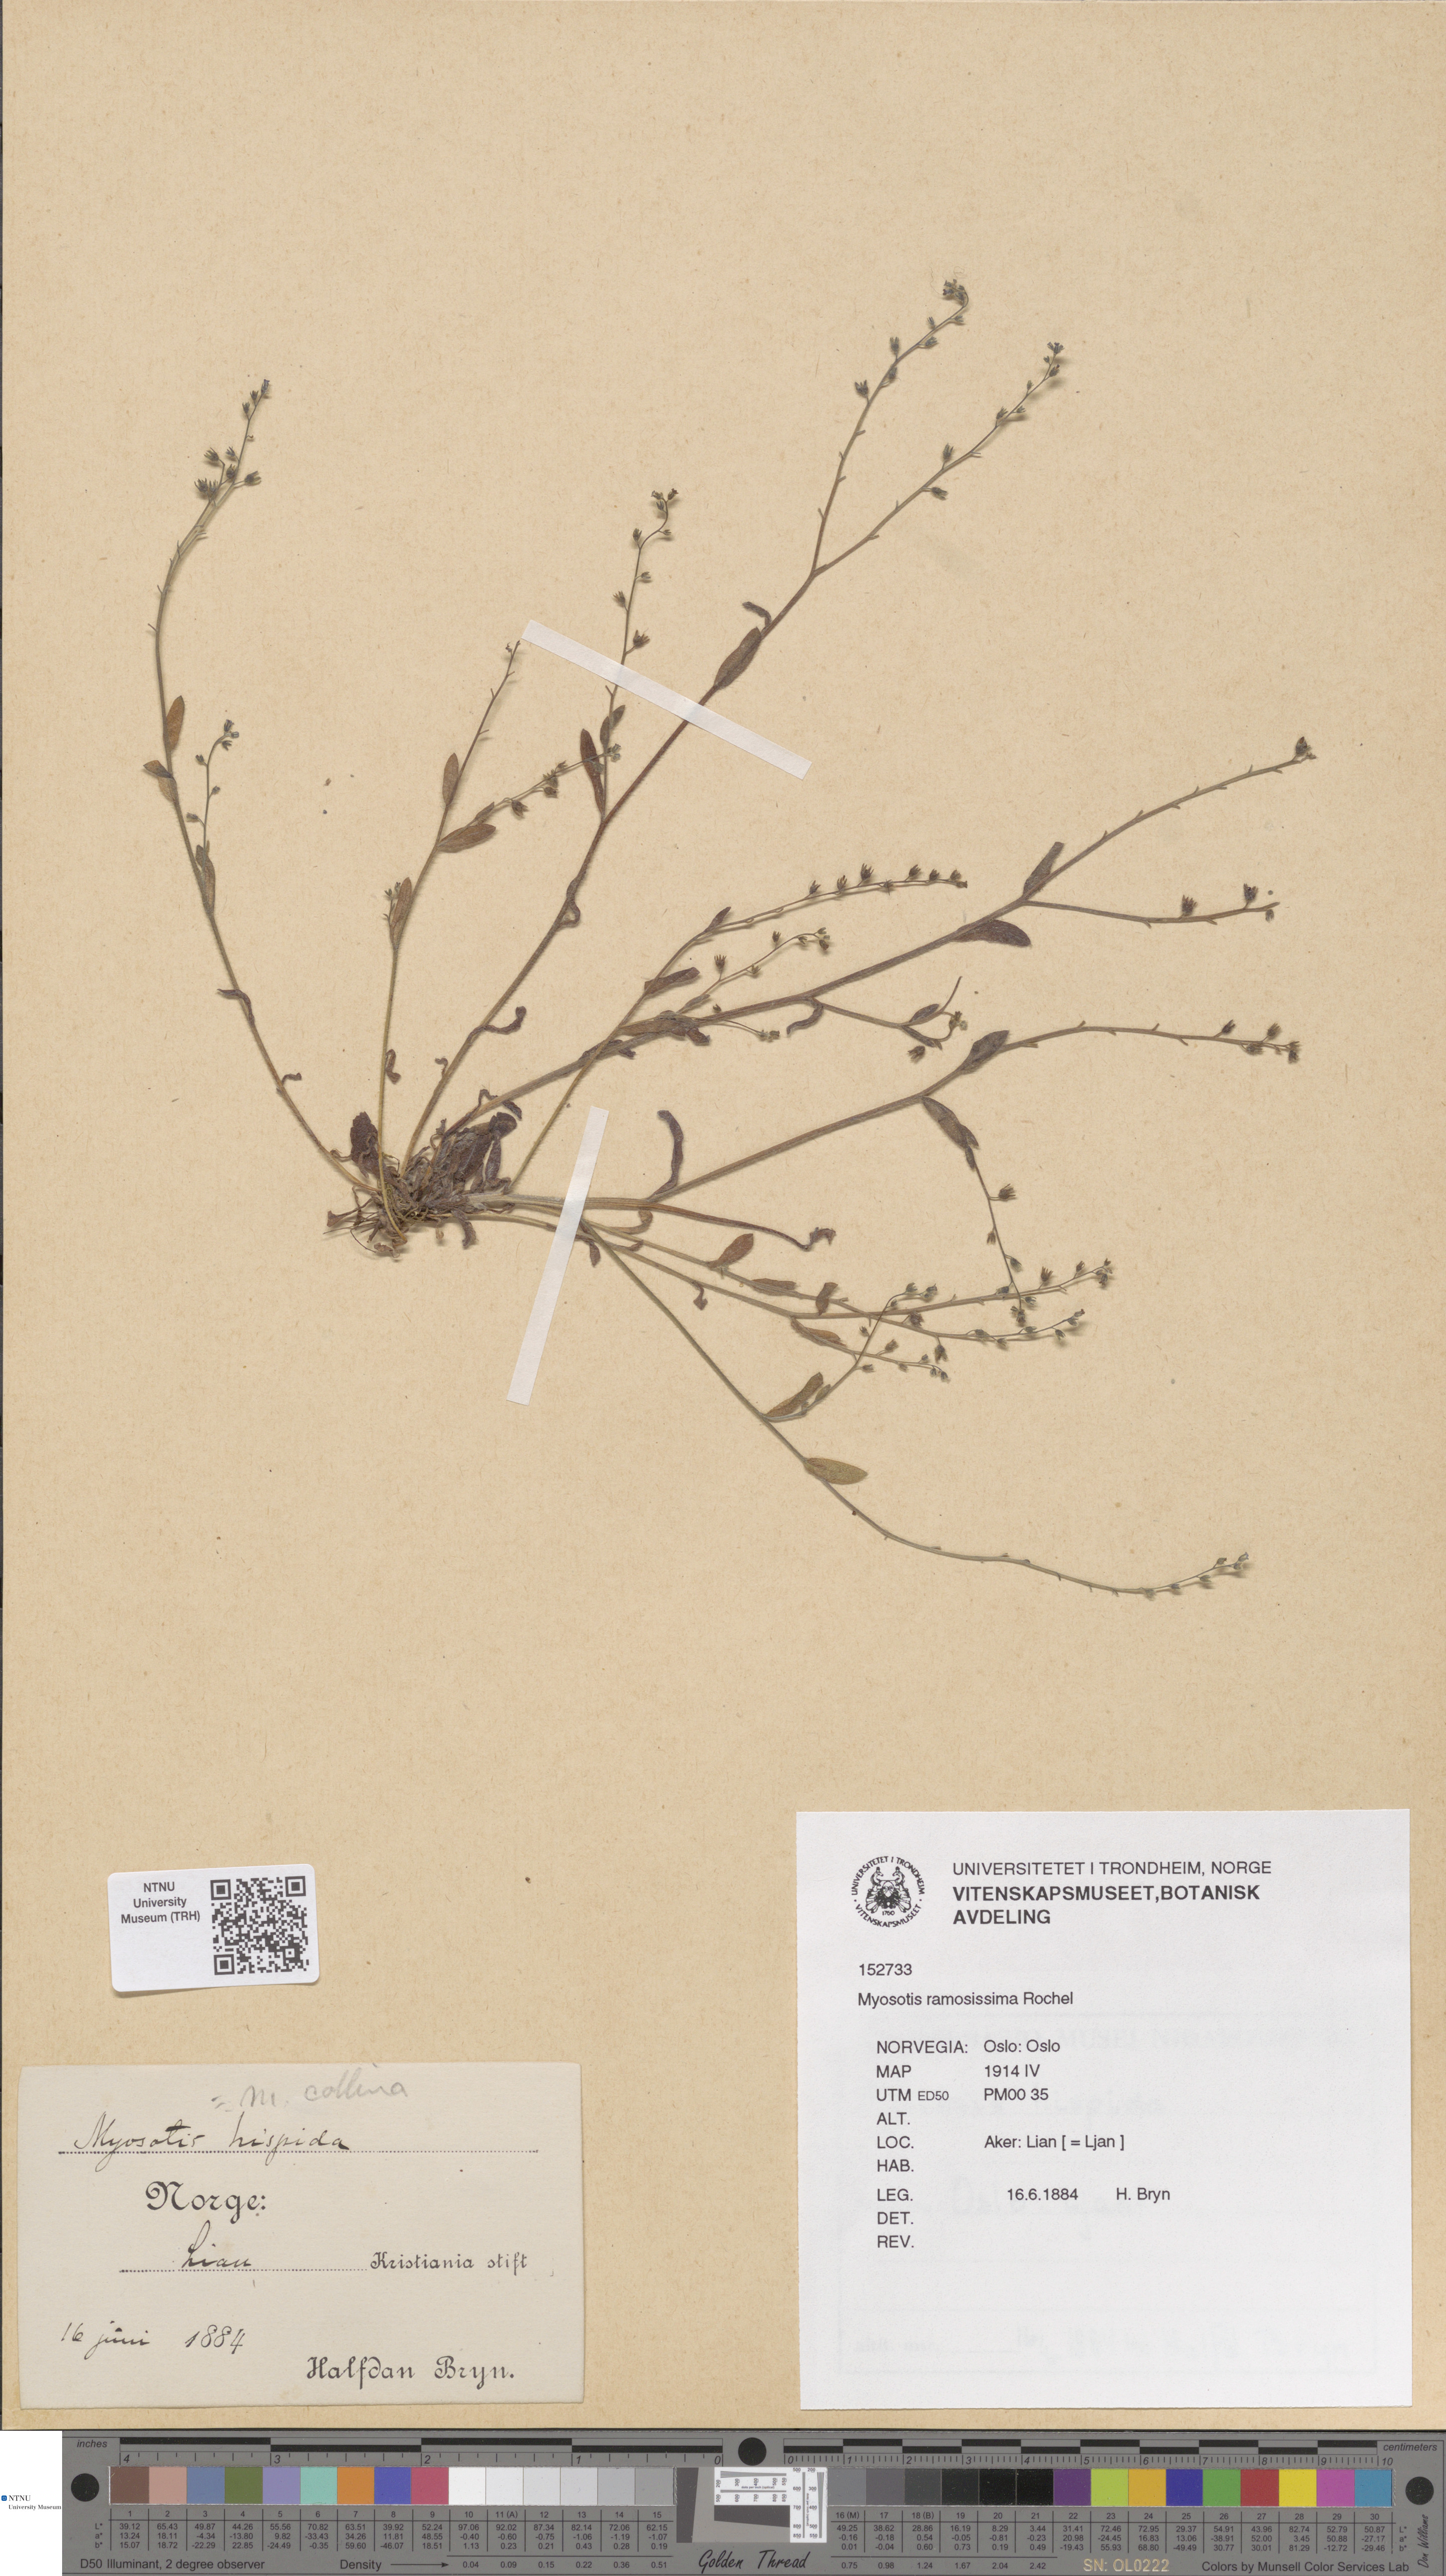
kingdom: Plantae
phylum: Tracheophyta
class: Magnoliopsida
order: Boraginales
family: Boraginaceae
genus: Myosotis
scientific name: Myosotis ramosissima
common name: Early forget-me-not
